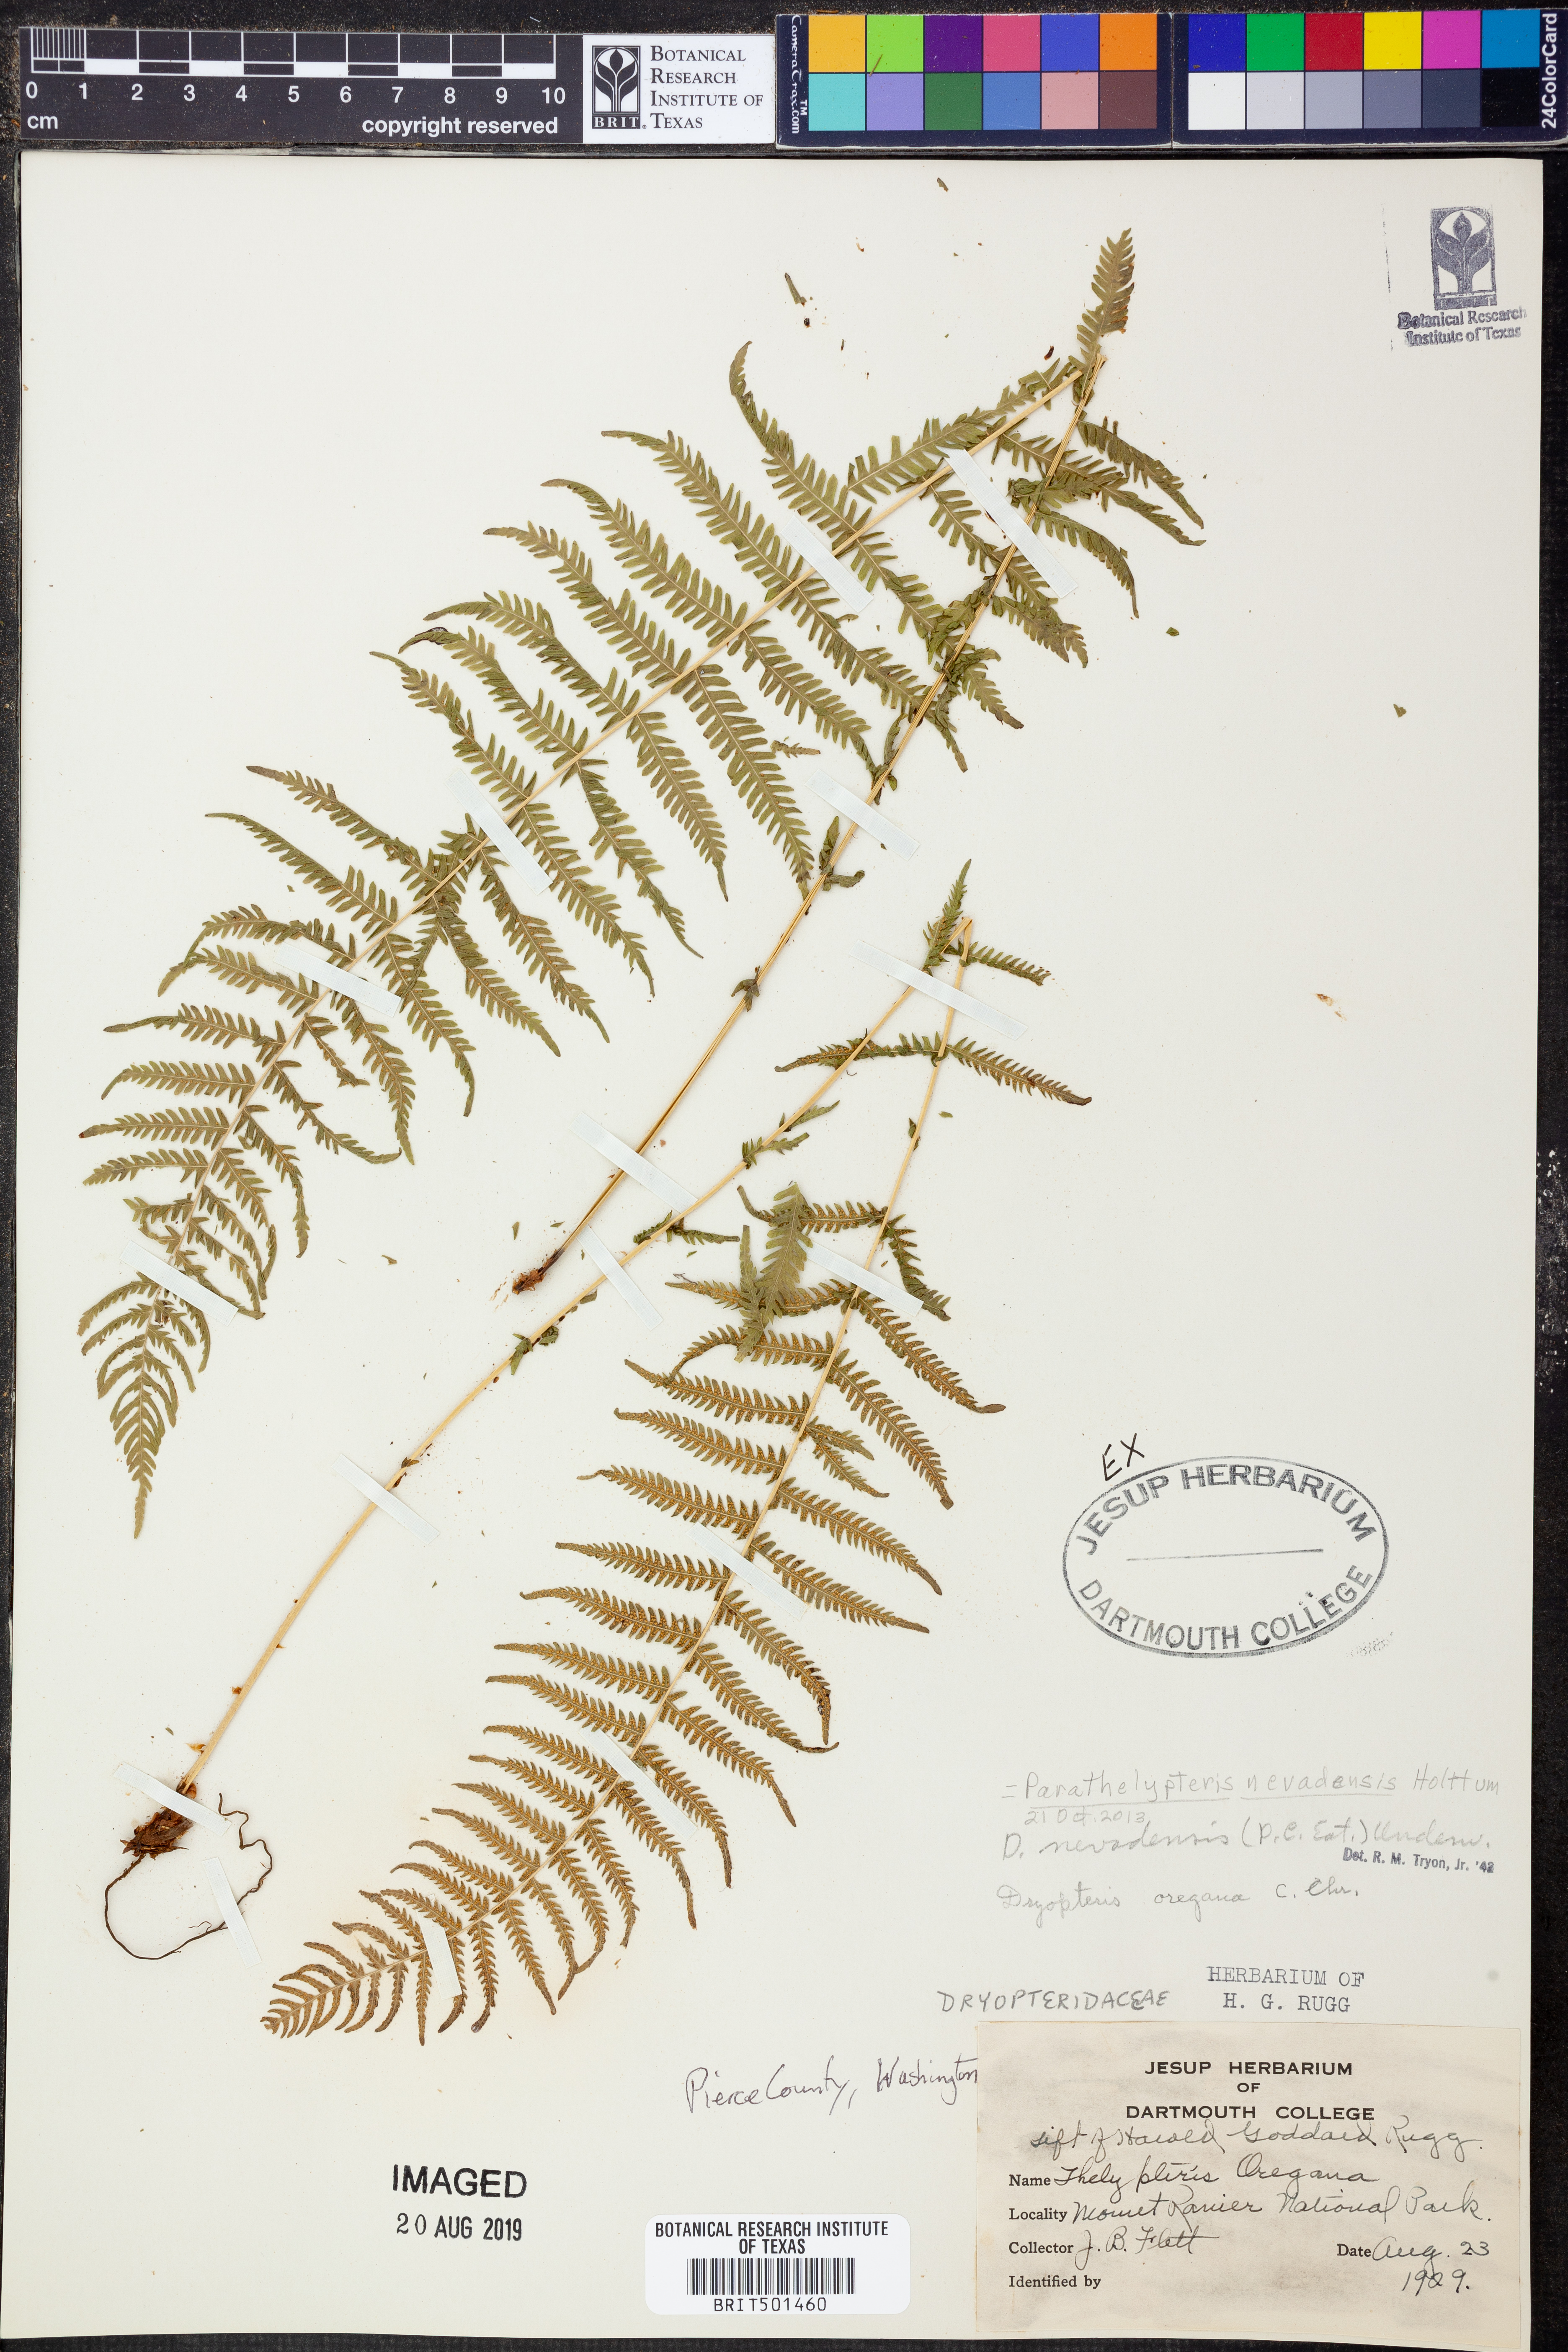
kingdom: Plantae
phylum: Tracheophyta
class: Polypodiopsida
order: Polypodiales
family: Thelypteridaceae
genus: Amauropelta
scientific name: Amauropelta nevadensis
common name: Nevada marsh fern
